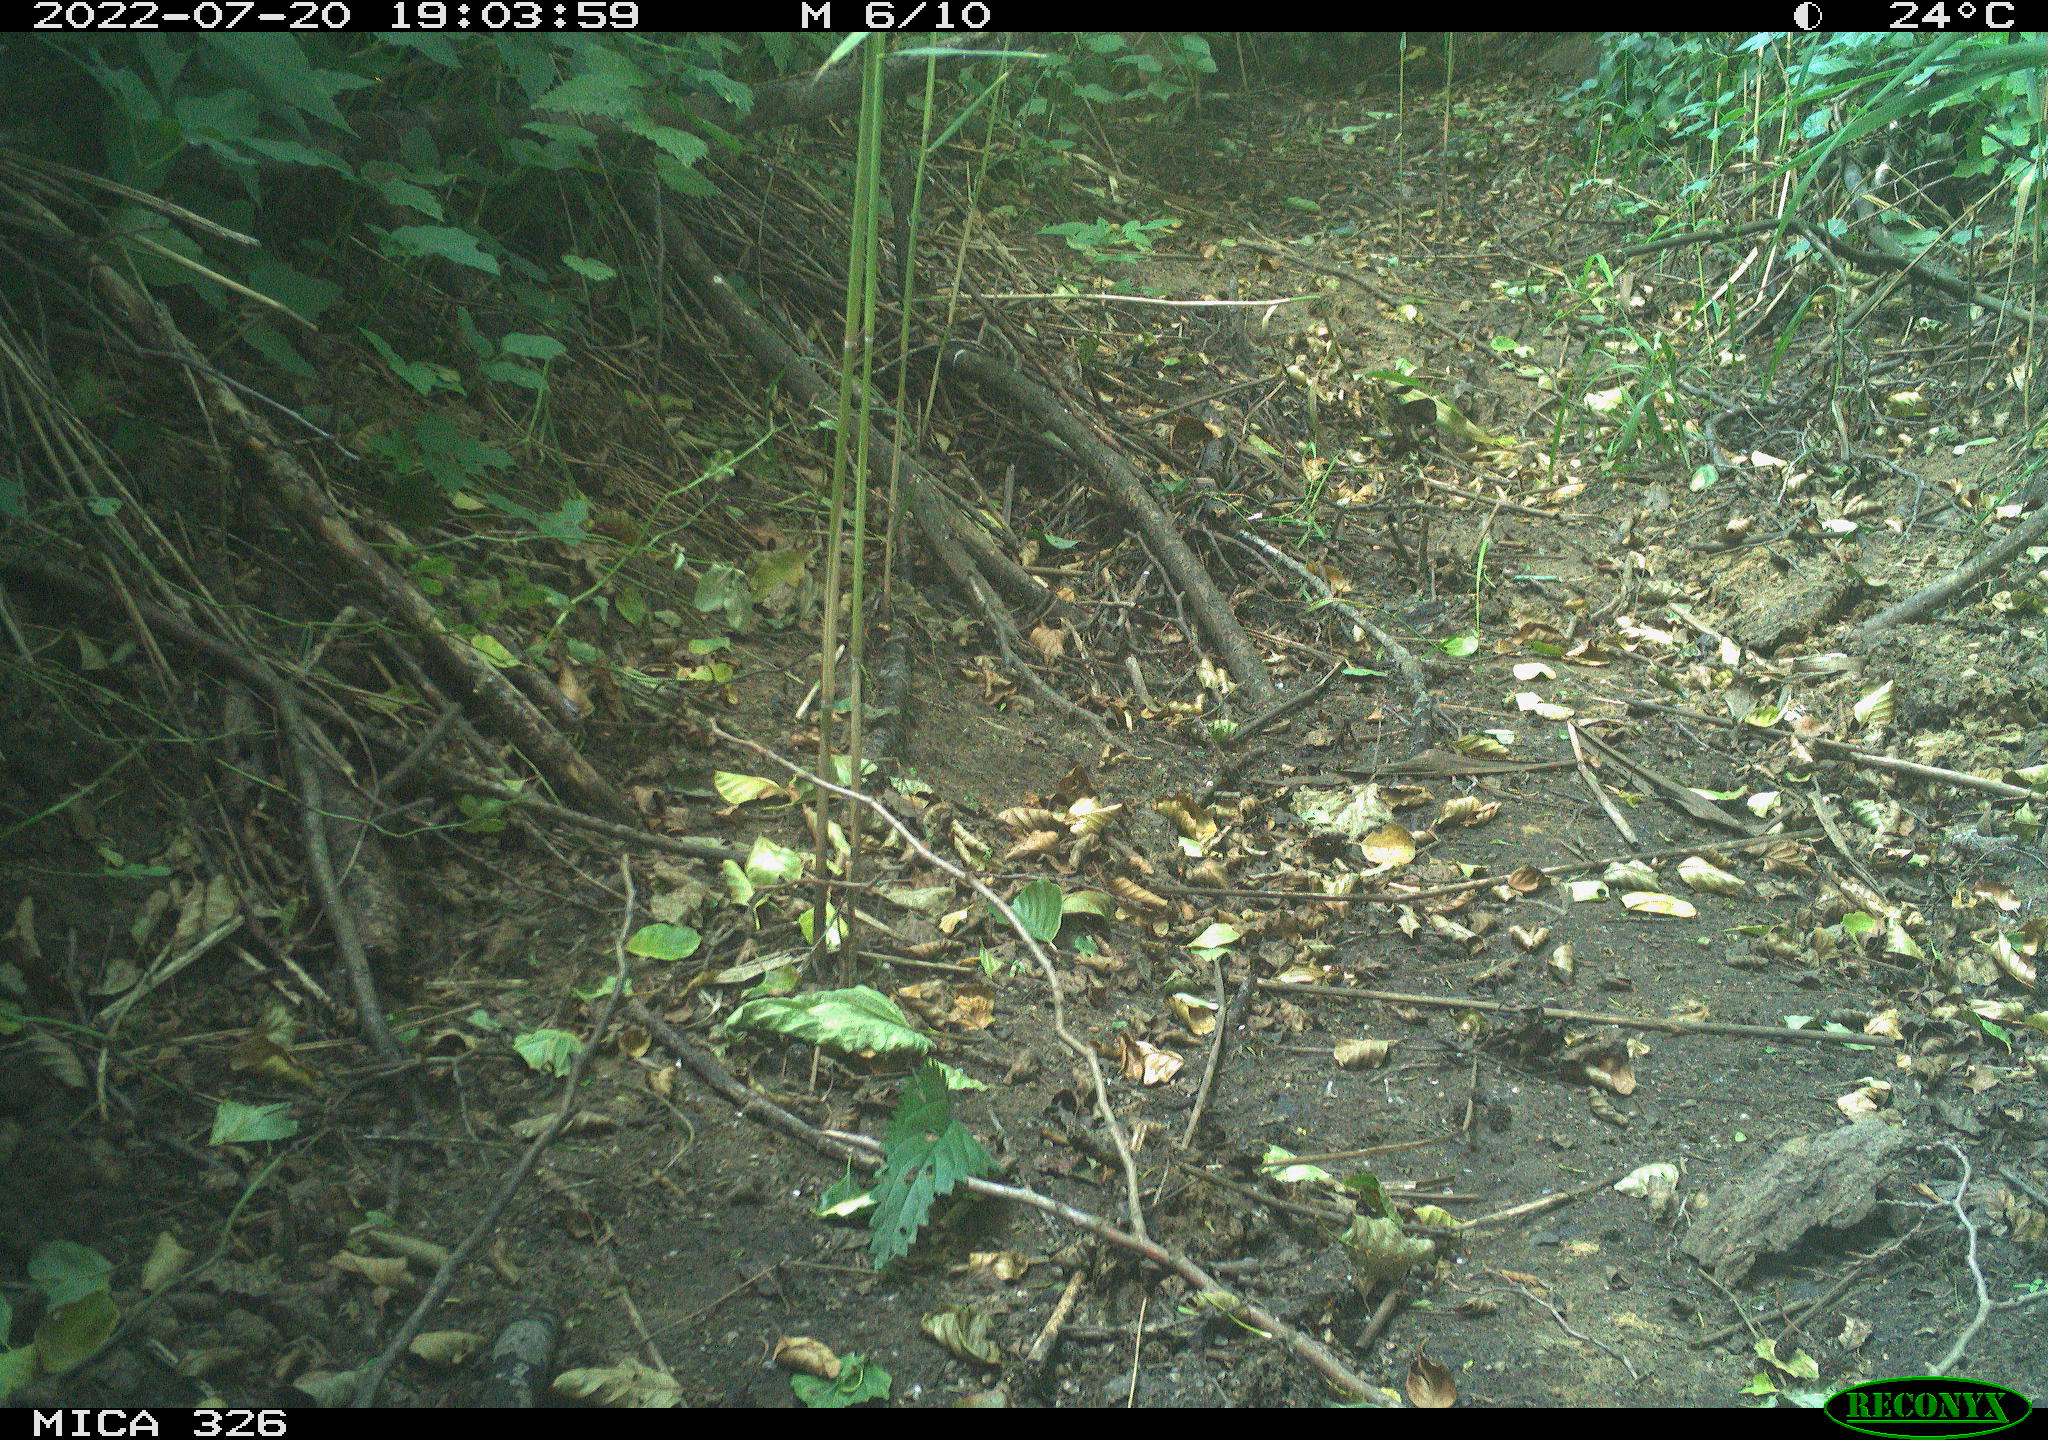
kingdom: Animalia
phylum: Chordata
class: Mammalia
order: Lagomorpha
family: Leporidae
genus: Lepus
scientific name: Lepus europaeus
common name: European hare
